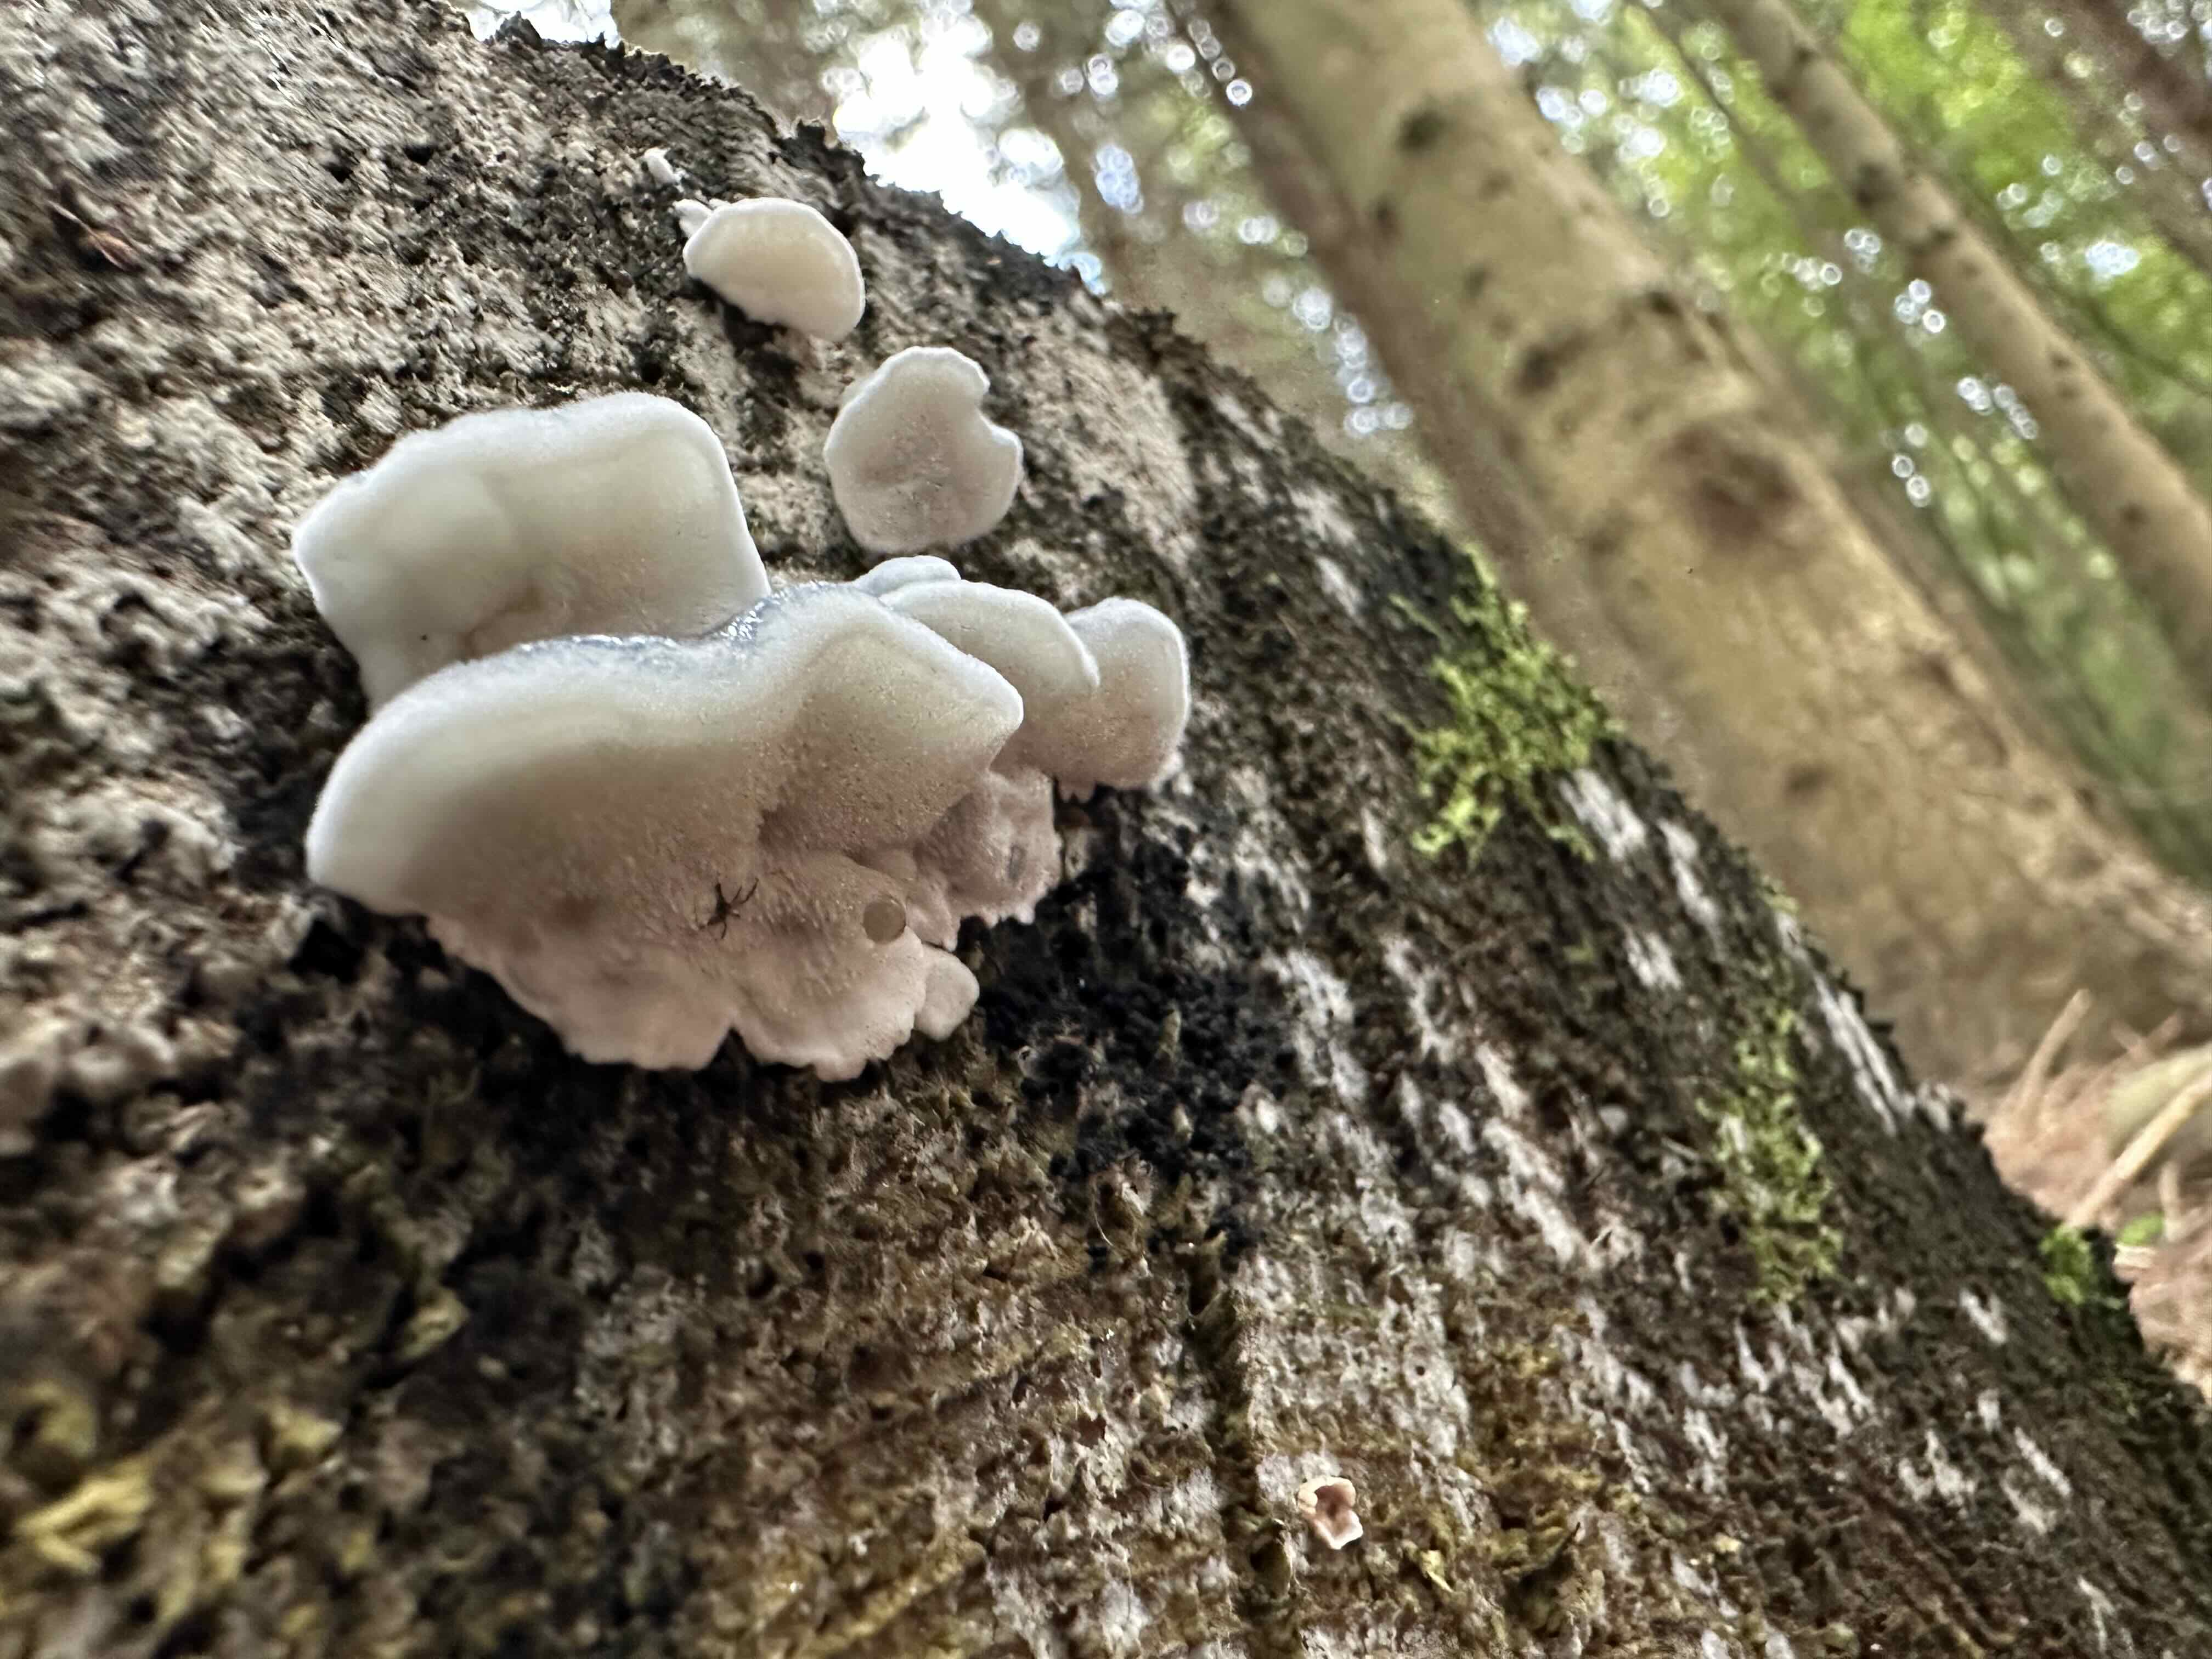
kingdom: Fungi
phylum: Basidiomycota
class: Agaricomycetes
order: Polyporales
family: Polyporaceae
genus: Cyanosporus
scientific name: Cyanosporus caesius
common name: blålig kødporesvamp
